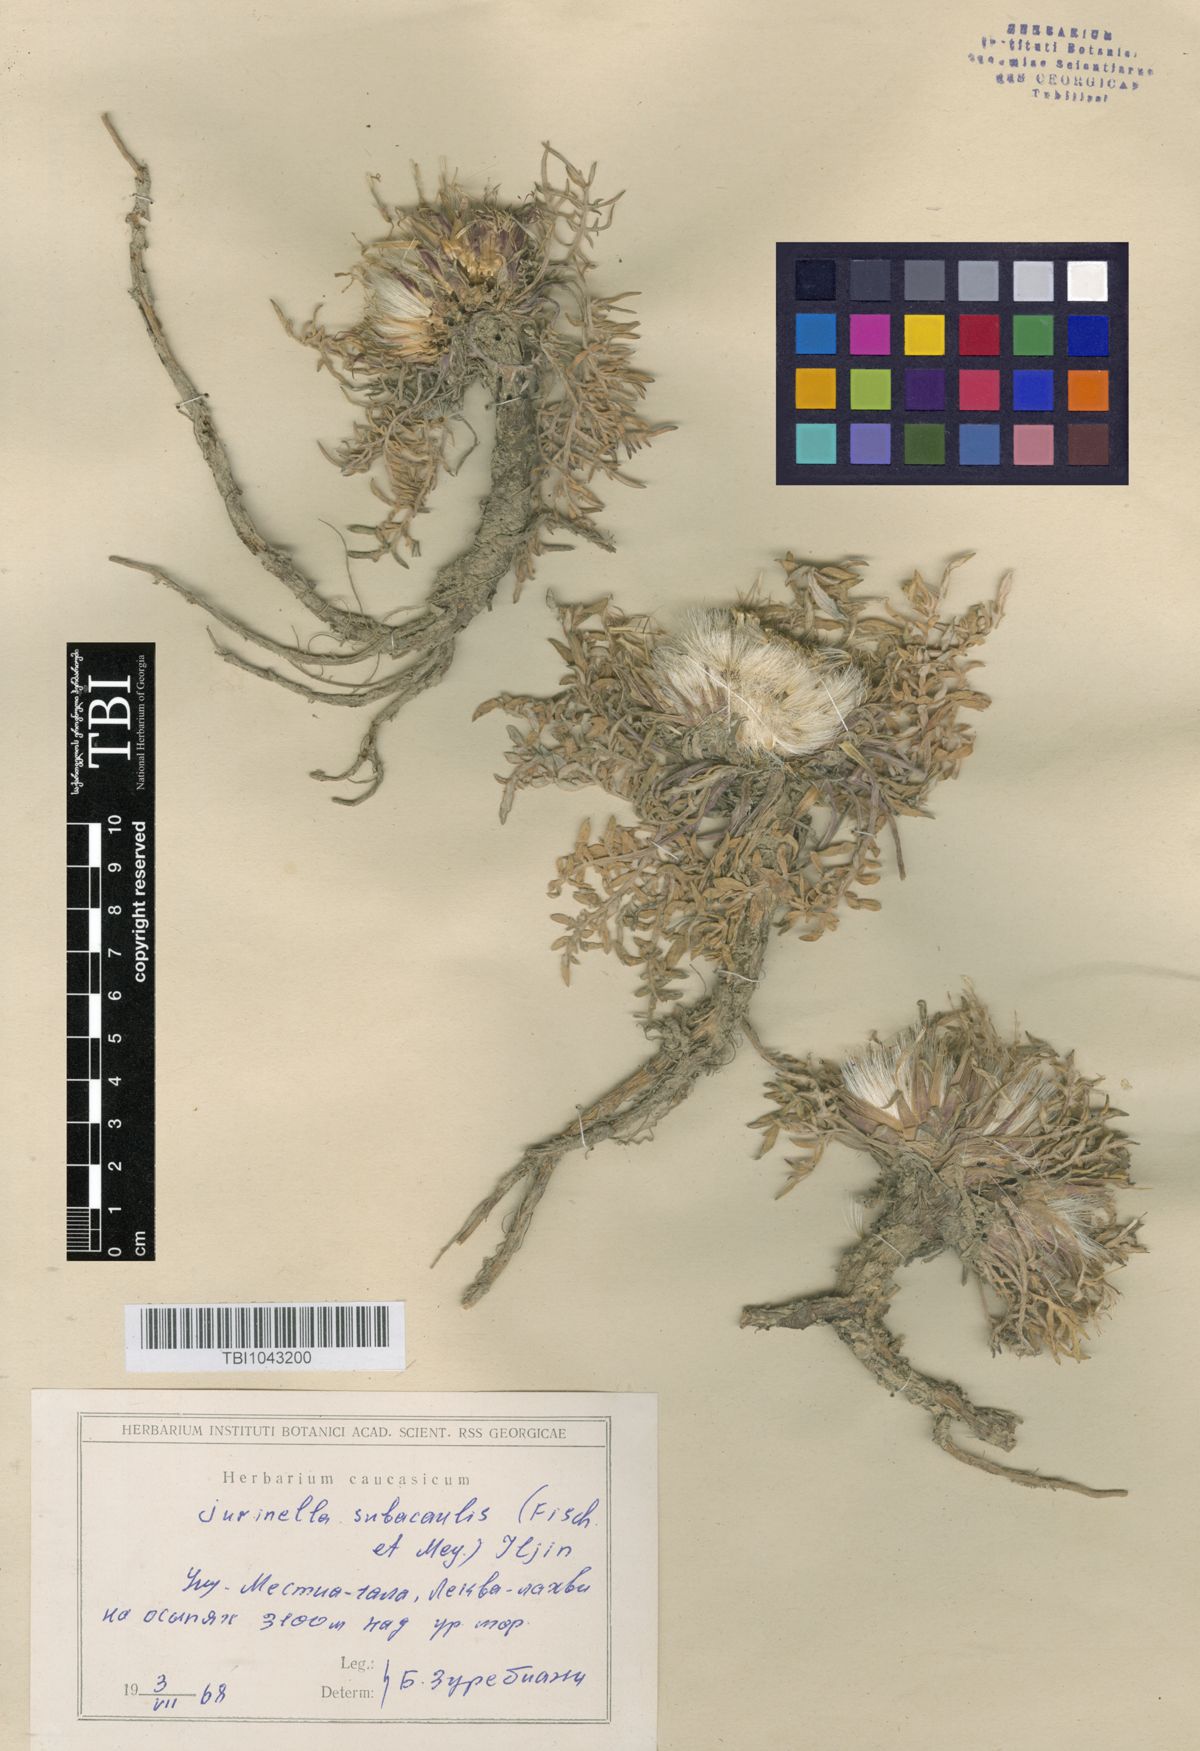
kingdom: Plantae
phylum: Tracheophyta
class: Magnoliopsida
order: Asterales
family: Asteraceae
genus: Jurinea
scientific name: Jurinea moschus
